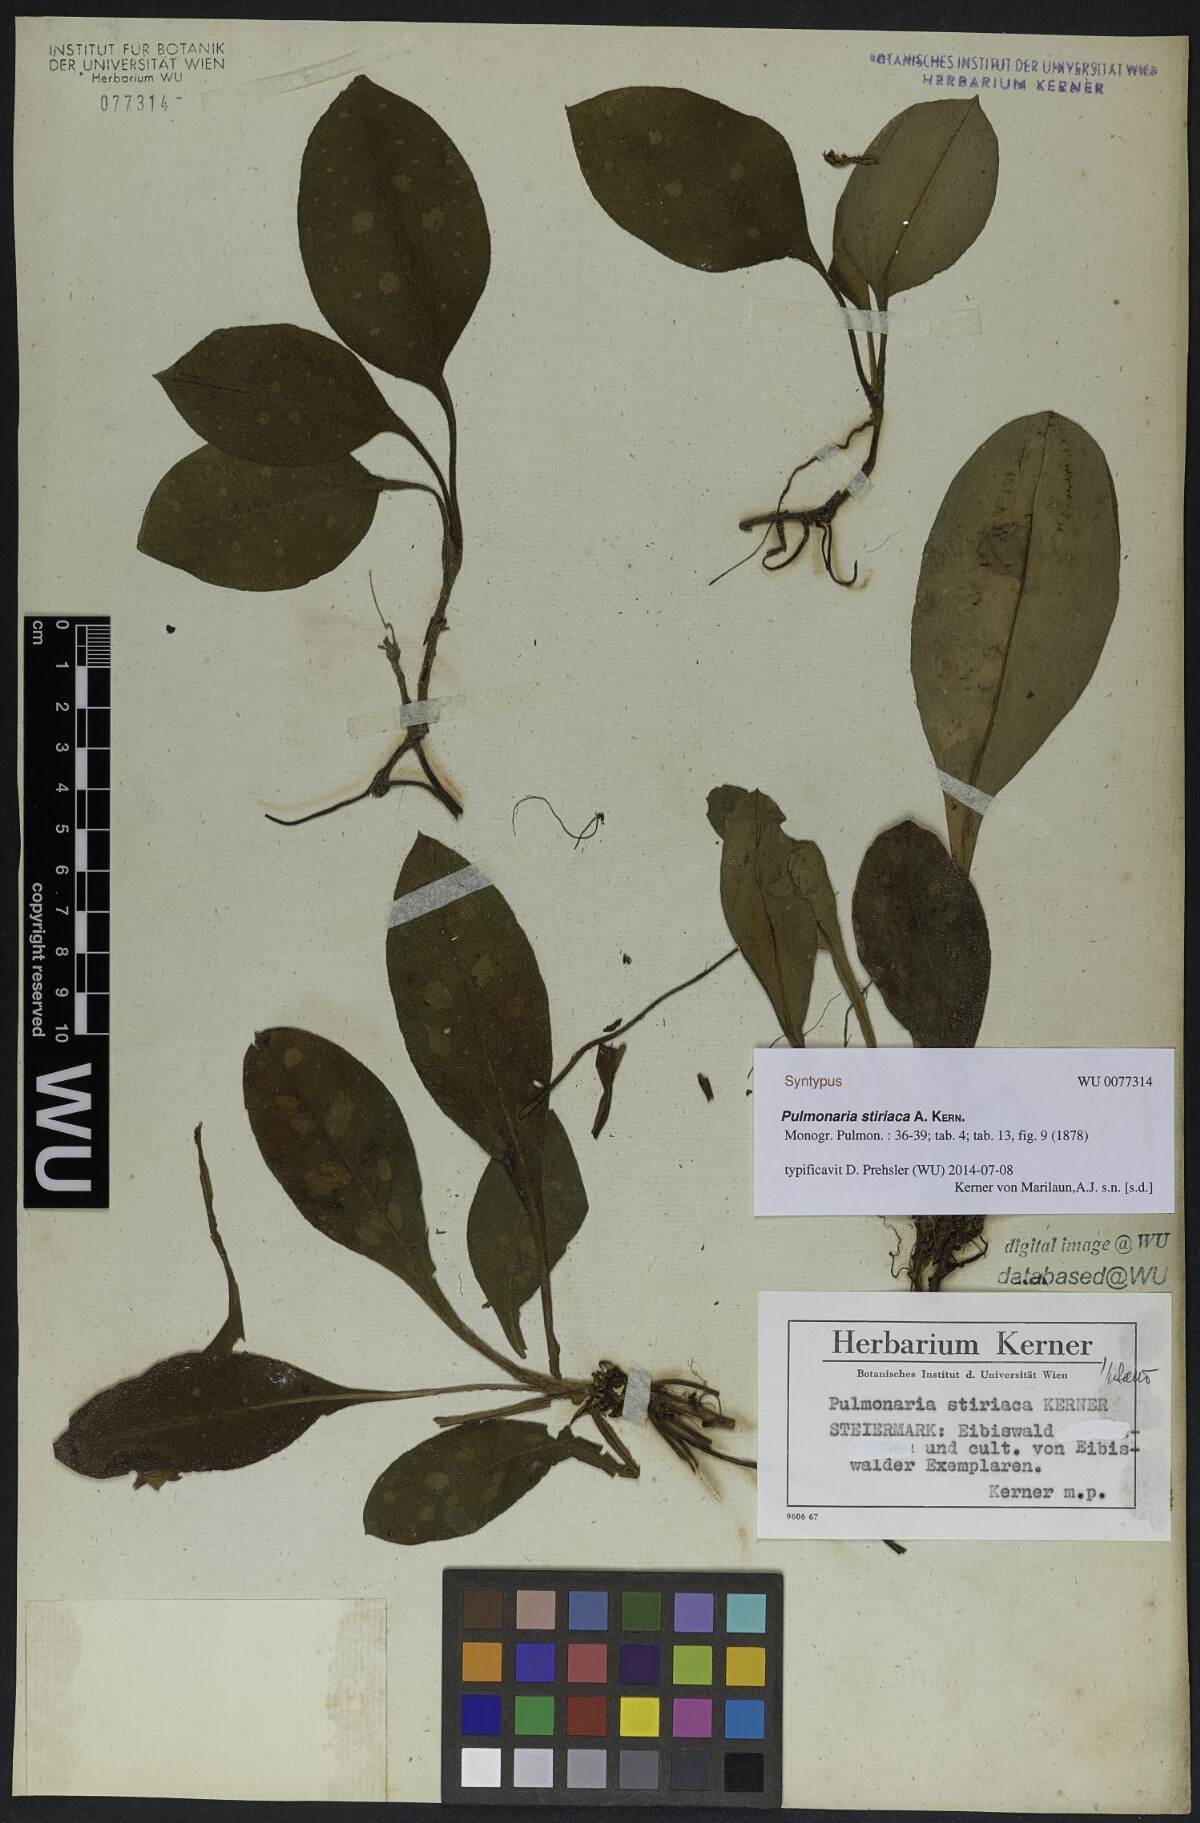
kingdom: Plantae
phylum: Tracheophyta
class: Magnoliopsida
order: Boraginales
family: Boraginaceae
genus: Pulmonaria
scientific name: Pulmonaria stiriaca
